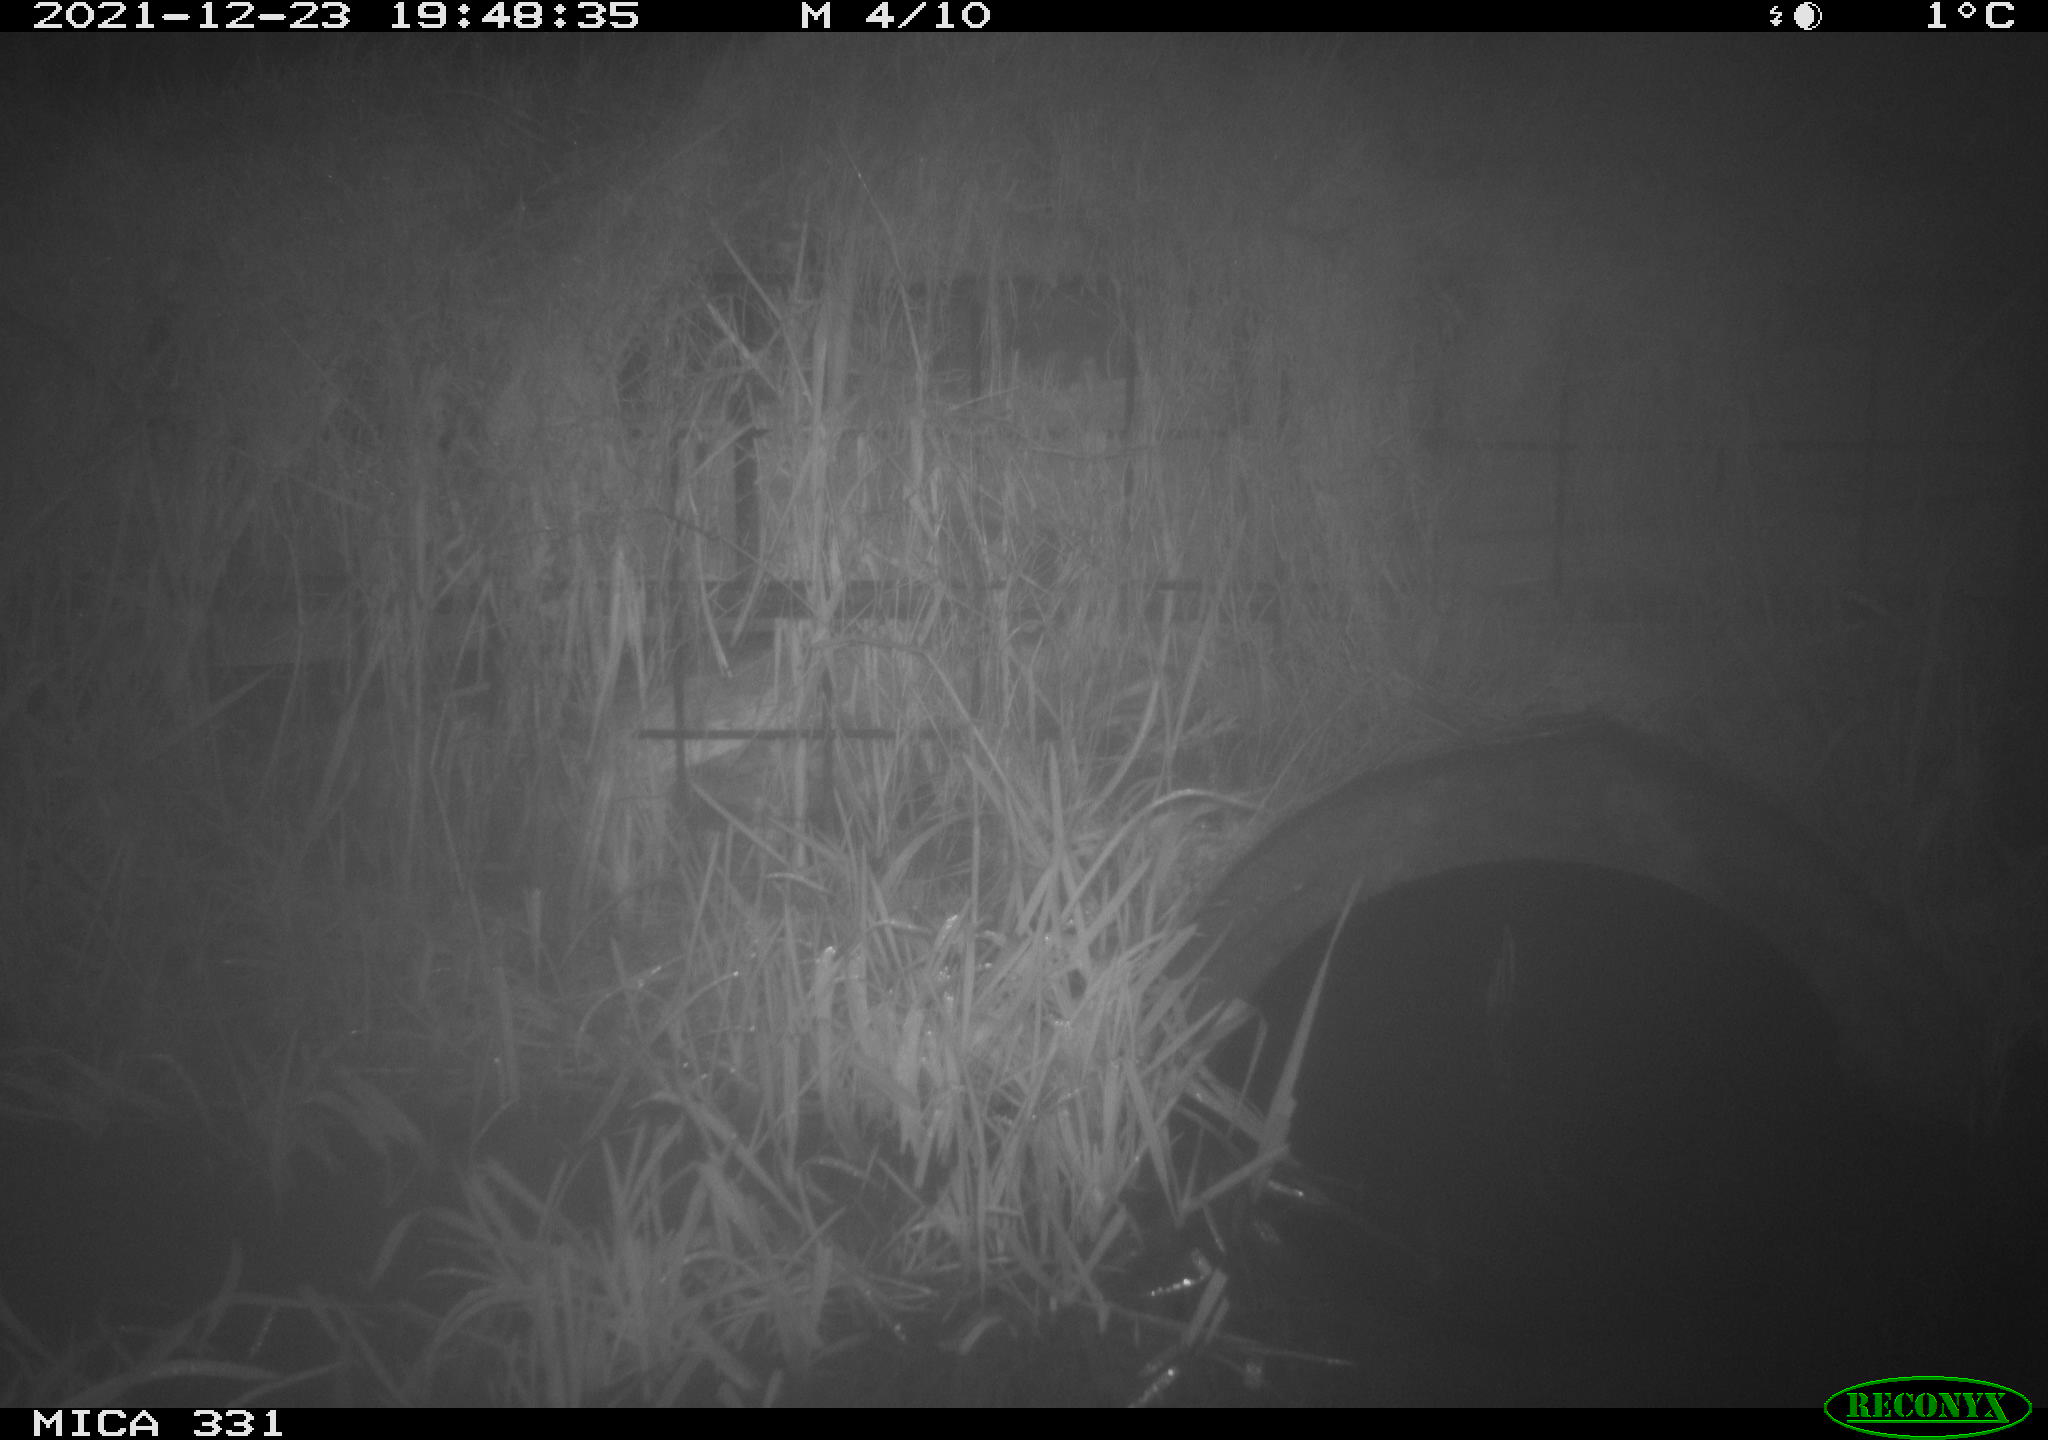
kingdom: Animalia
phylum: Chordata
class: Mammalia
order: Rodentia
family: Muridae
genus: Rattus
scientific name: Rattus norvegicus
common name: Brown rat
